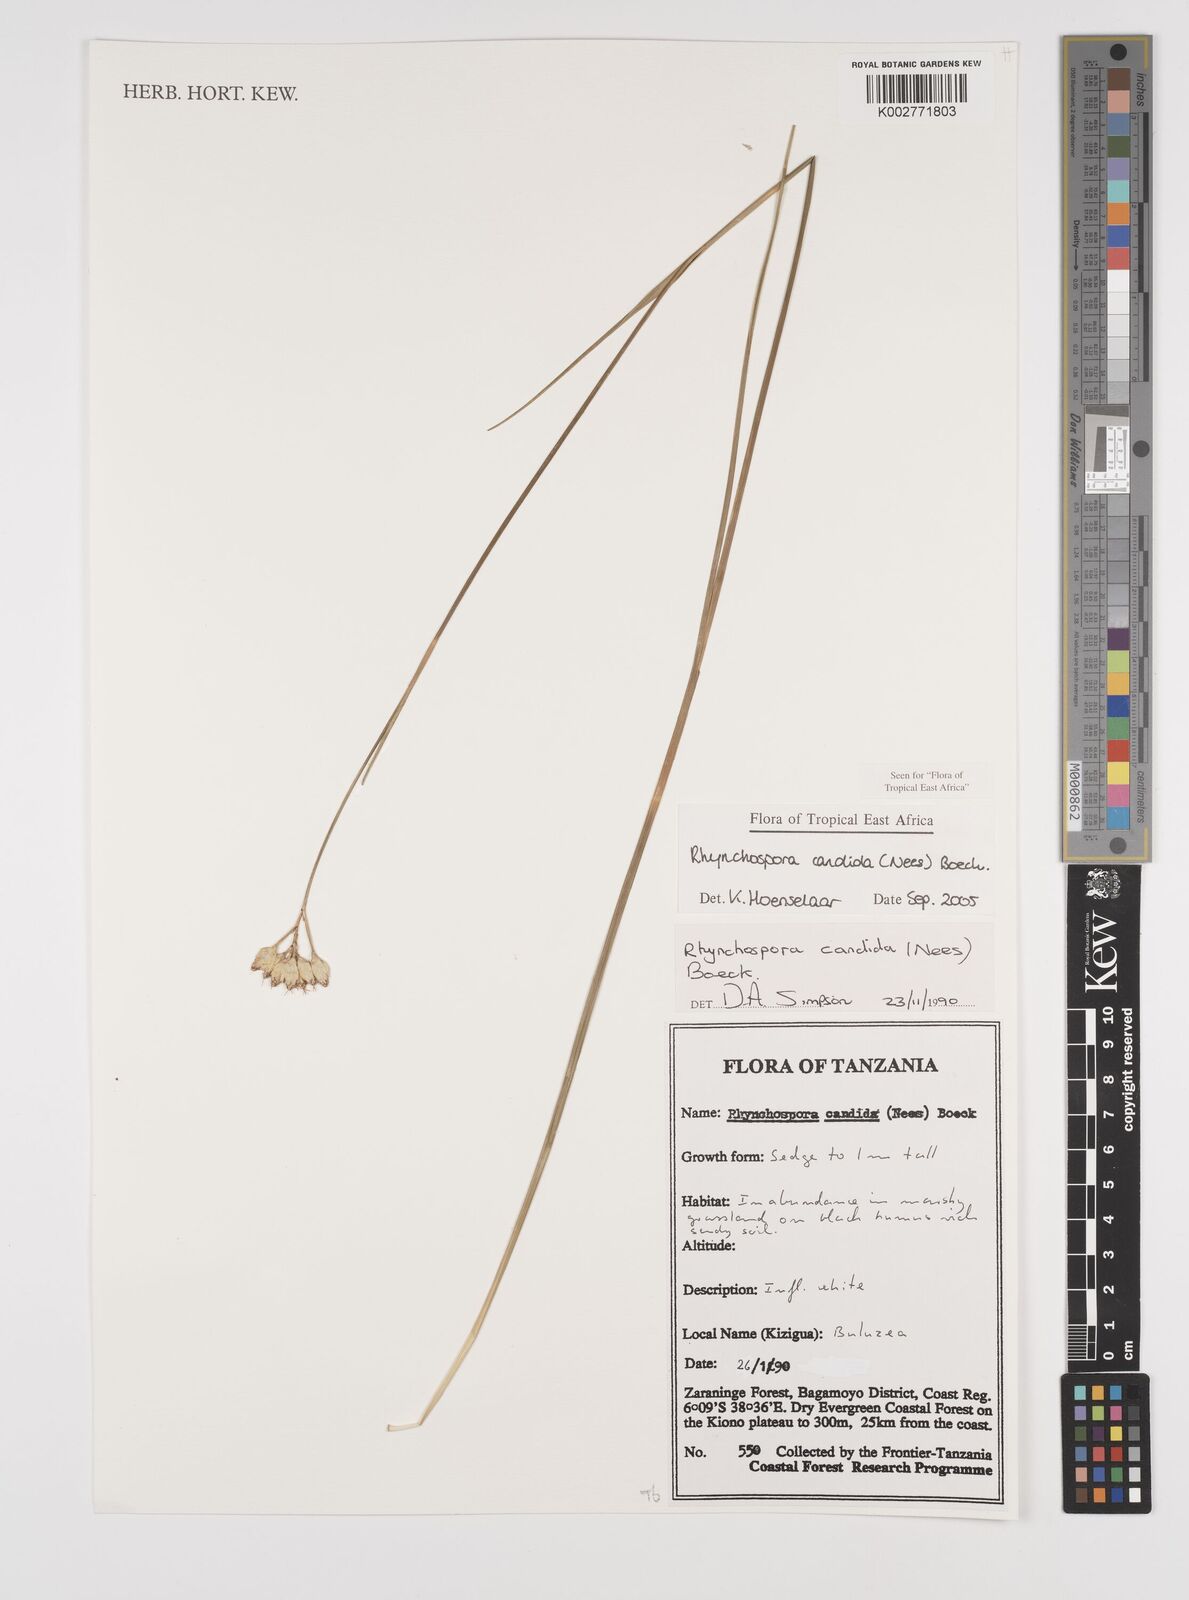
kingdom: Plantae
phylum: Tracheophyta
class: Liliopsida
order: Poales
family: Cyperaceae
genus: Rhynchospora
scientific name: Rhynchospora candida
